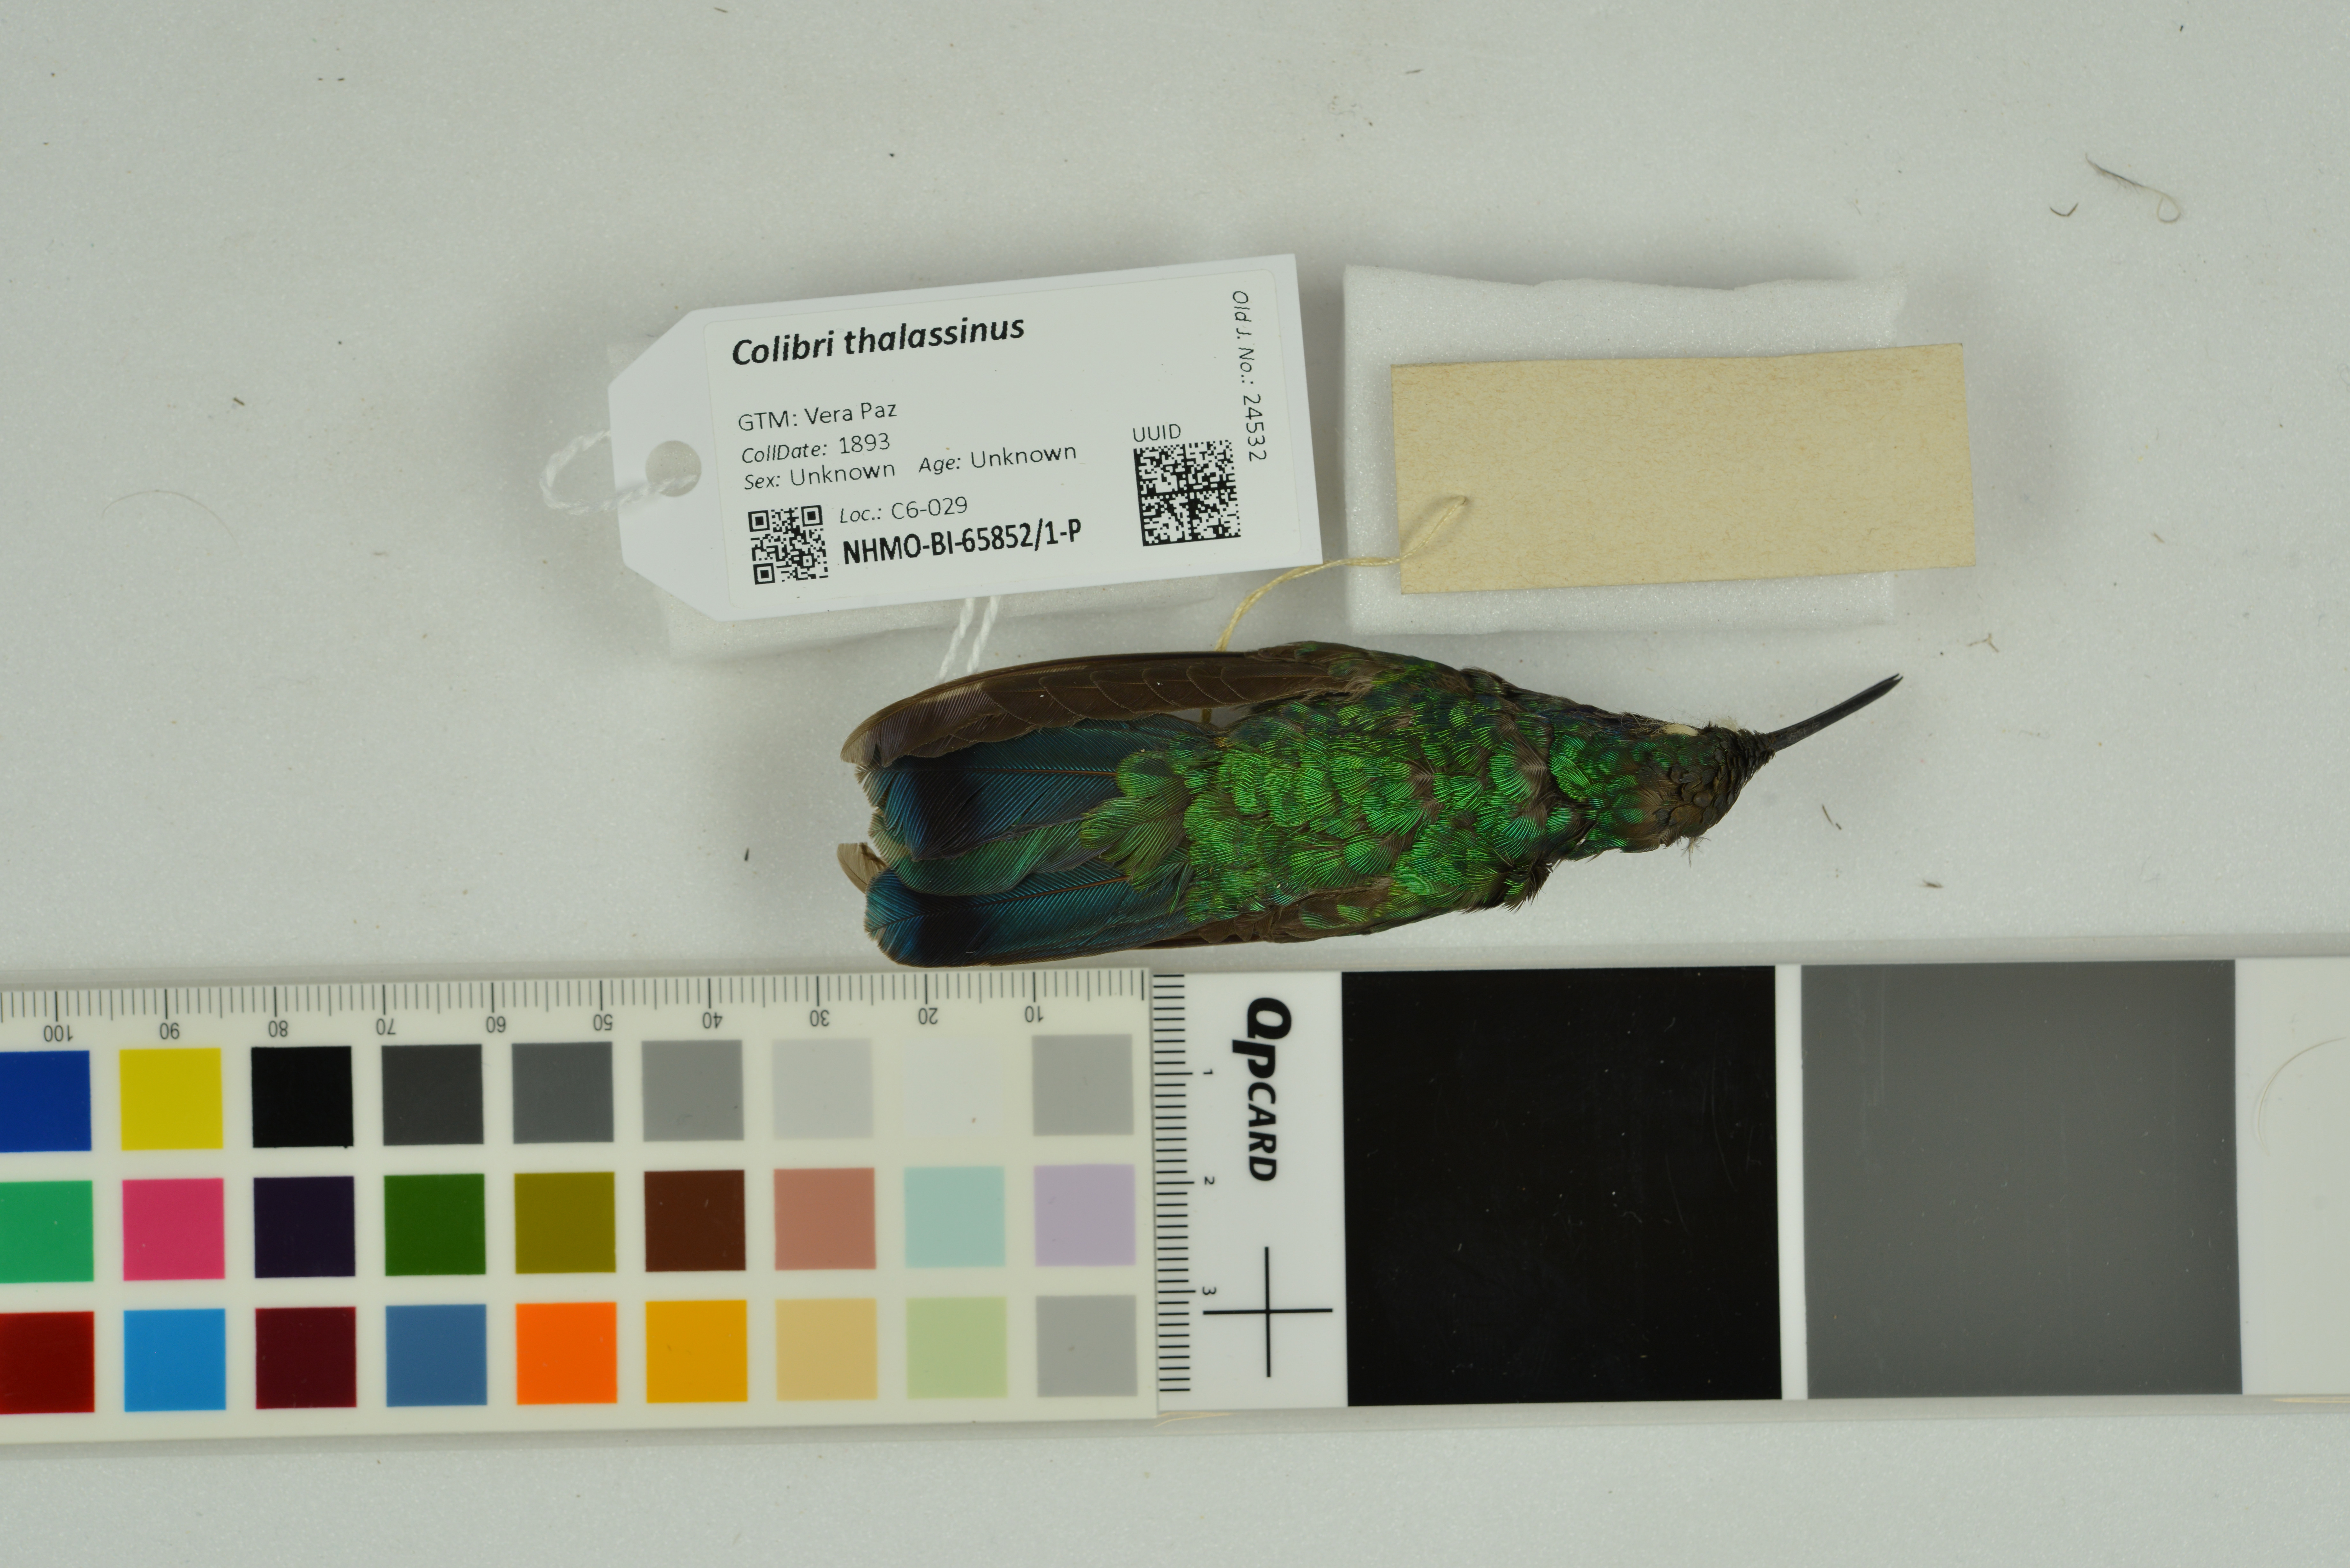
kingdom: Animalia
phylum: Chordata
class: Aves
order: Apodiformes
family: Trochilidae
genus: Colibri
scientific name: Colibri thalassinus
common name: Green violetear
